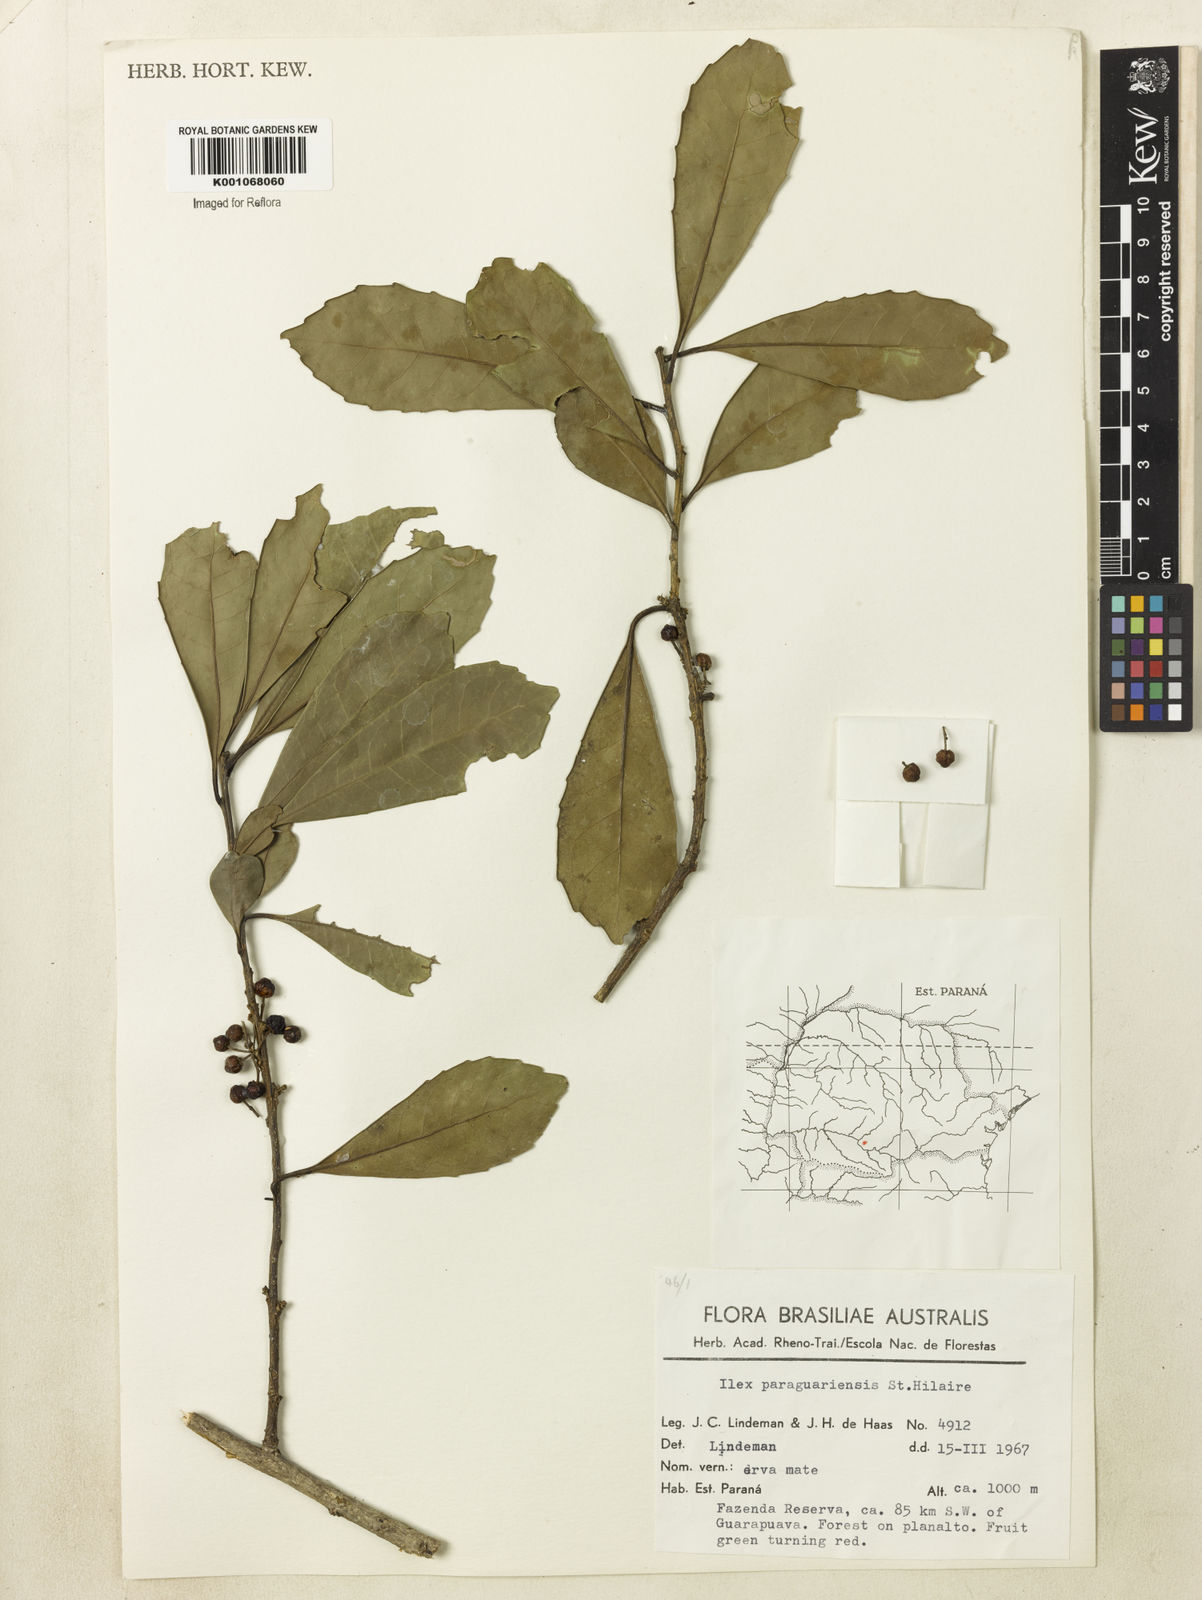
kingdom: Plantae
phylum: Tracheophyta
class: Magnoliopsida
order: Aquifoliales
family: Aquifoliaceae
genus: Ilex
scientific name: Ilex paraguariensis
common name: Paraguay tea
